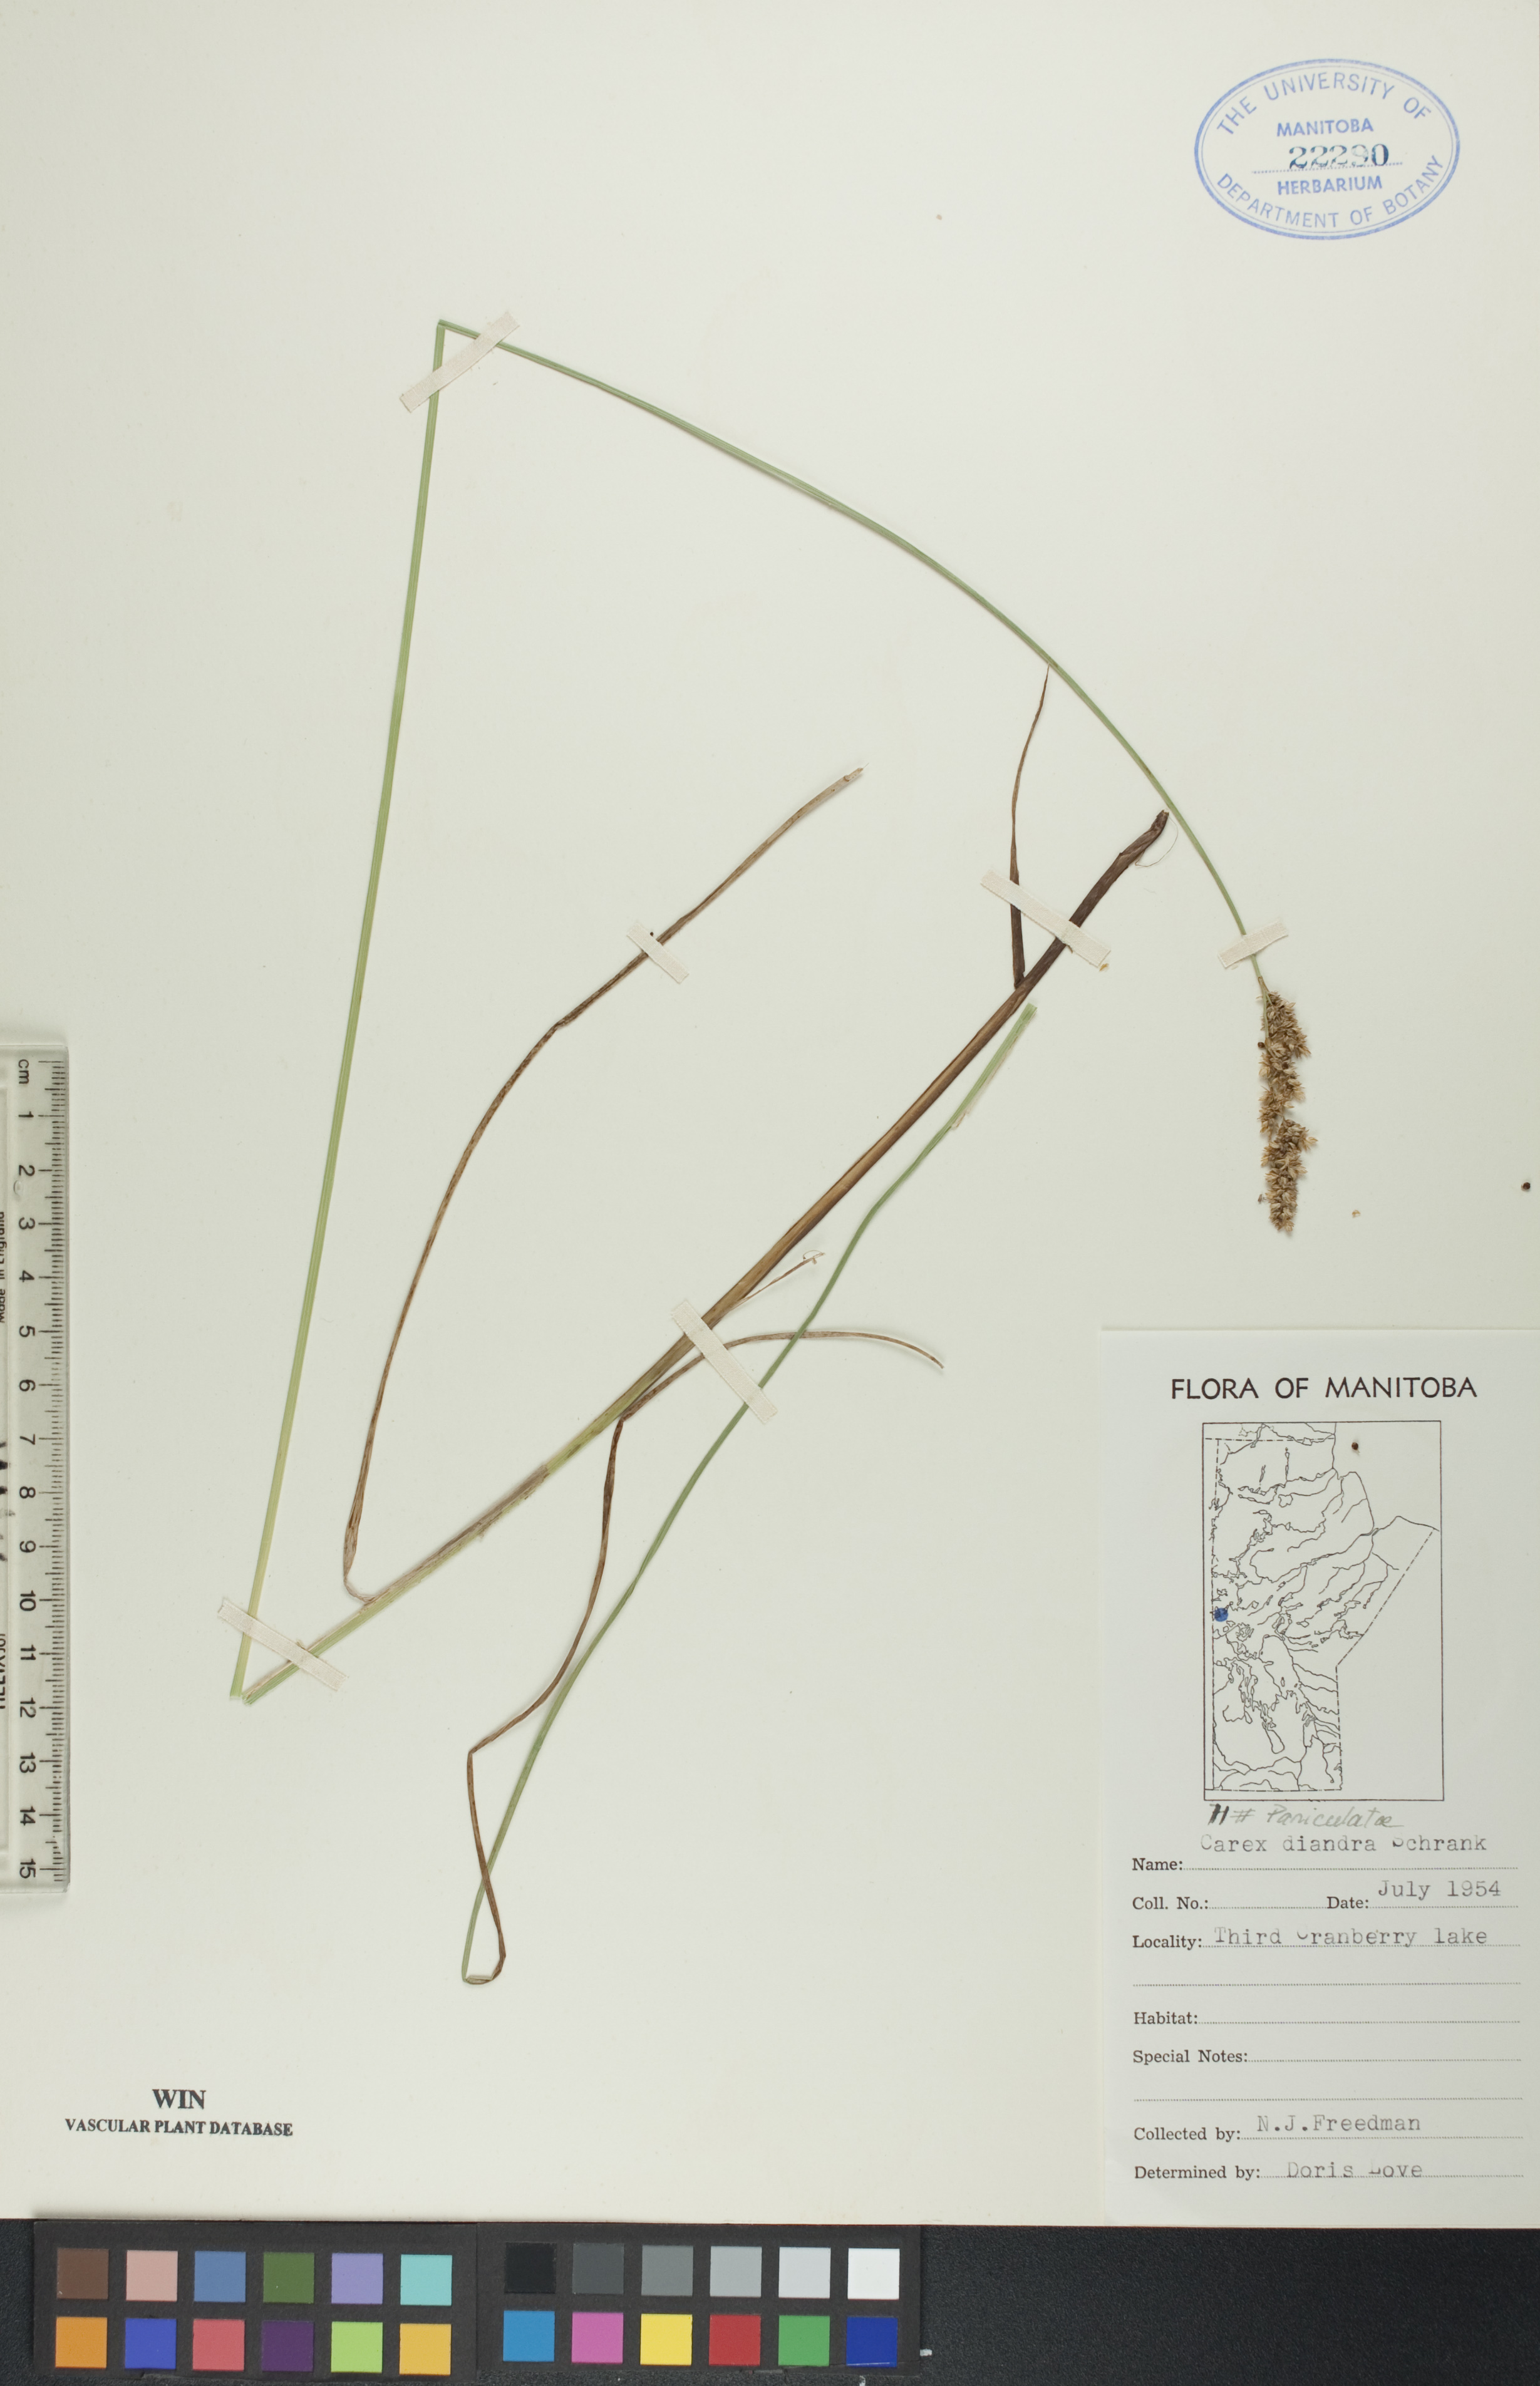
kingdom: Plantae
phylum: Tracheophyta
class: Liliopsida
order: Poales
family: Cyperaceae
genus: Carex
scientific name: Carex diandra
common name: Lesser tussock-sedge
